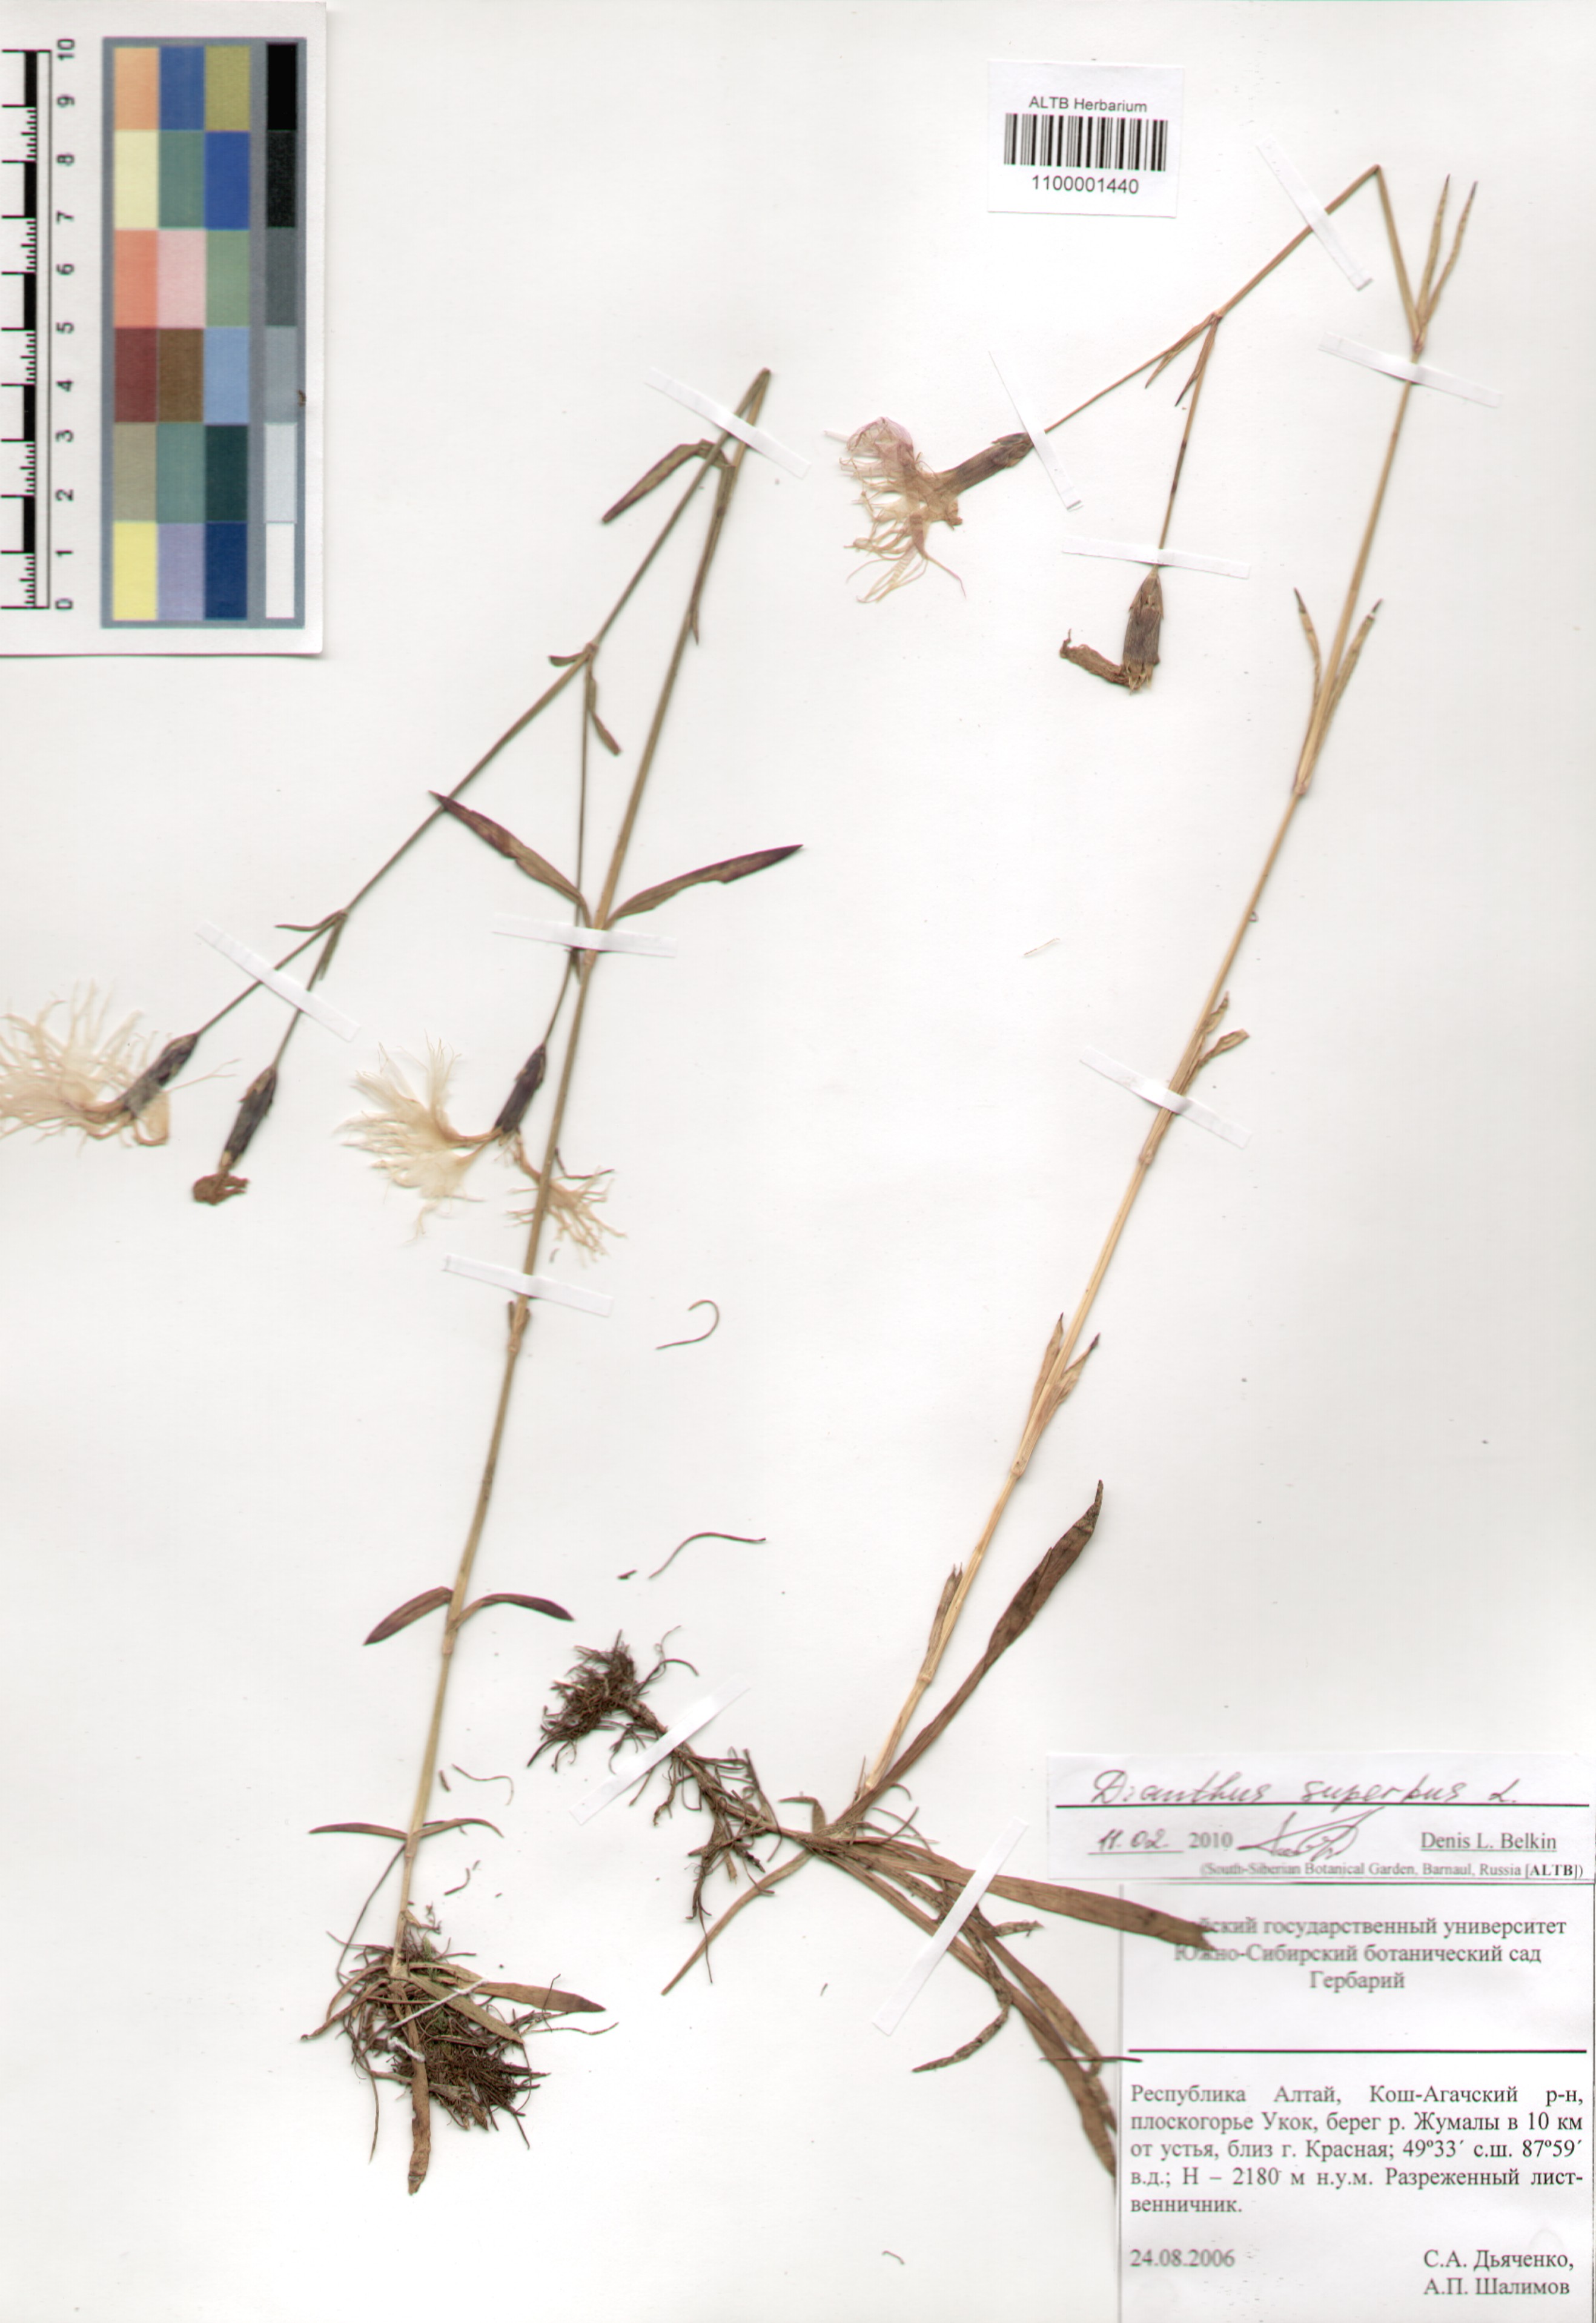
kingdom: Plantae
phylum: Tracheophyta
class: Magnoliopsida
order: Caryophyllales
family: Caryophyllaceae
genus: Dianthus
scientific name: Dianthus superbus
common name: Fringed pink
